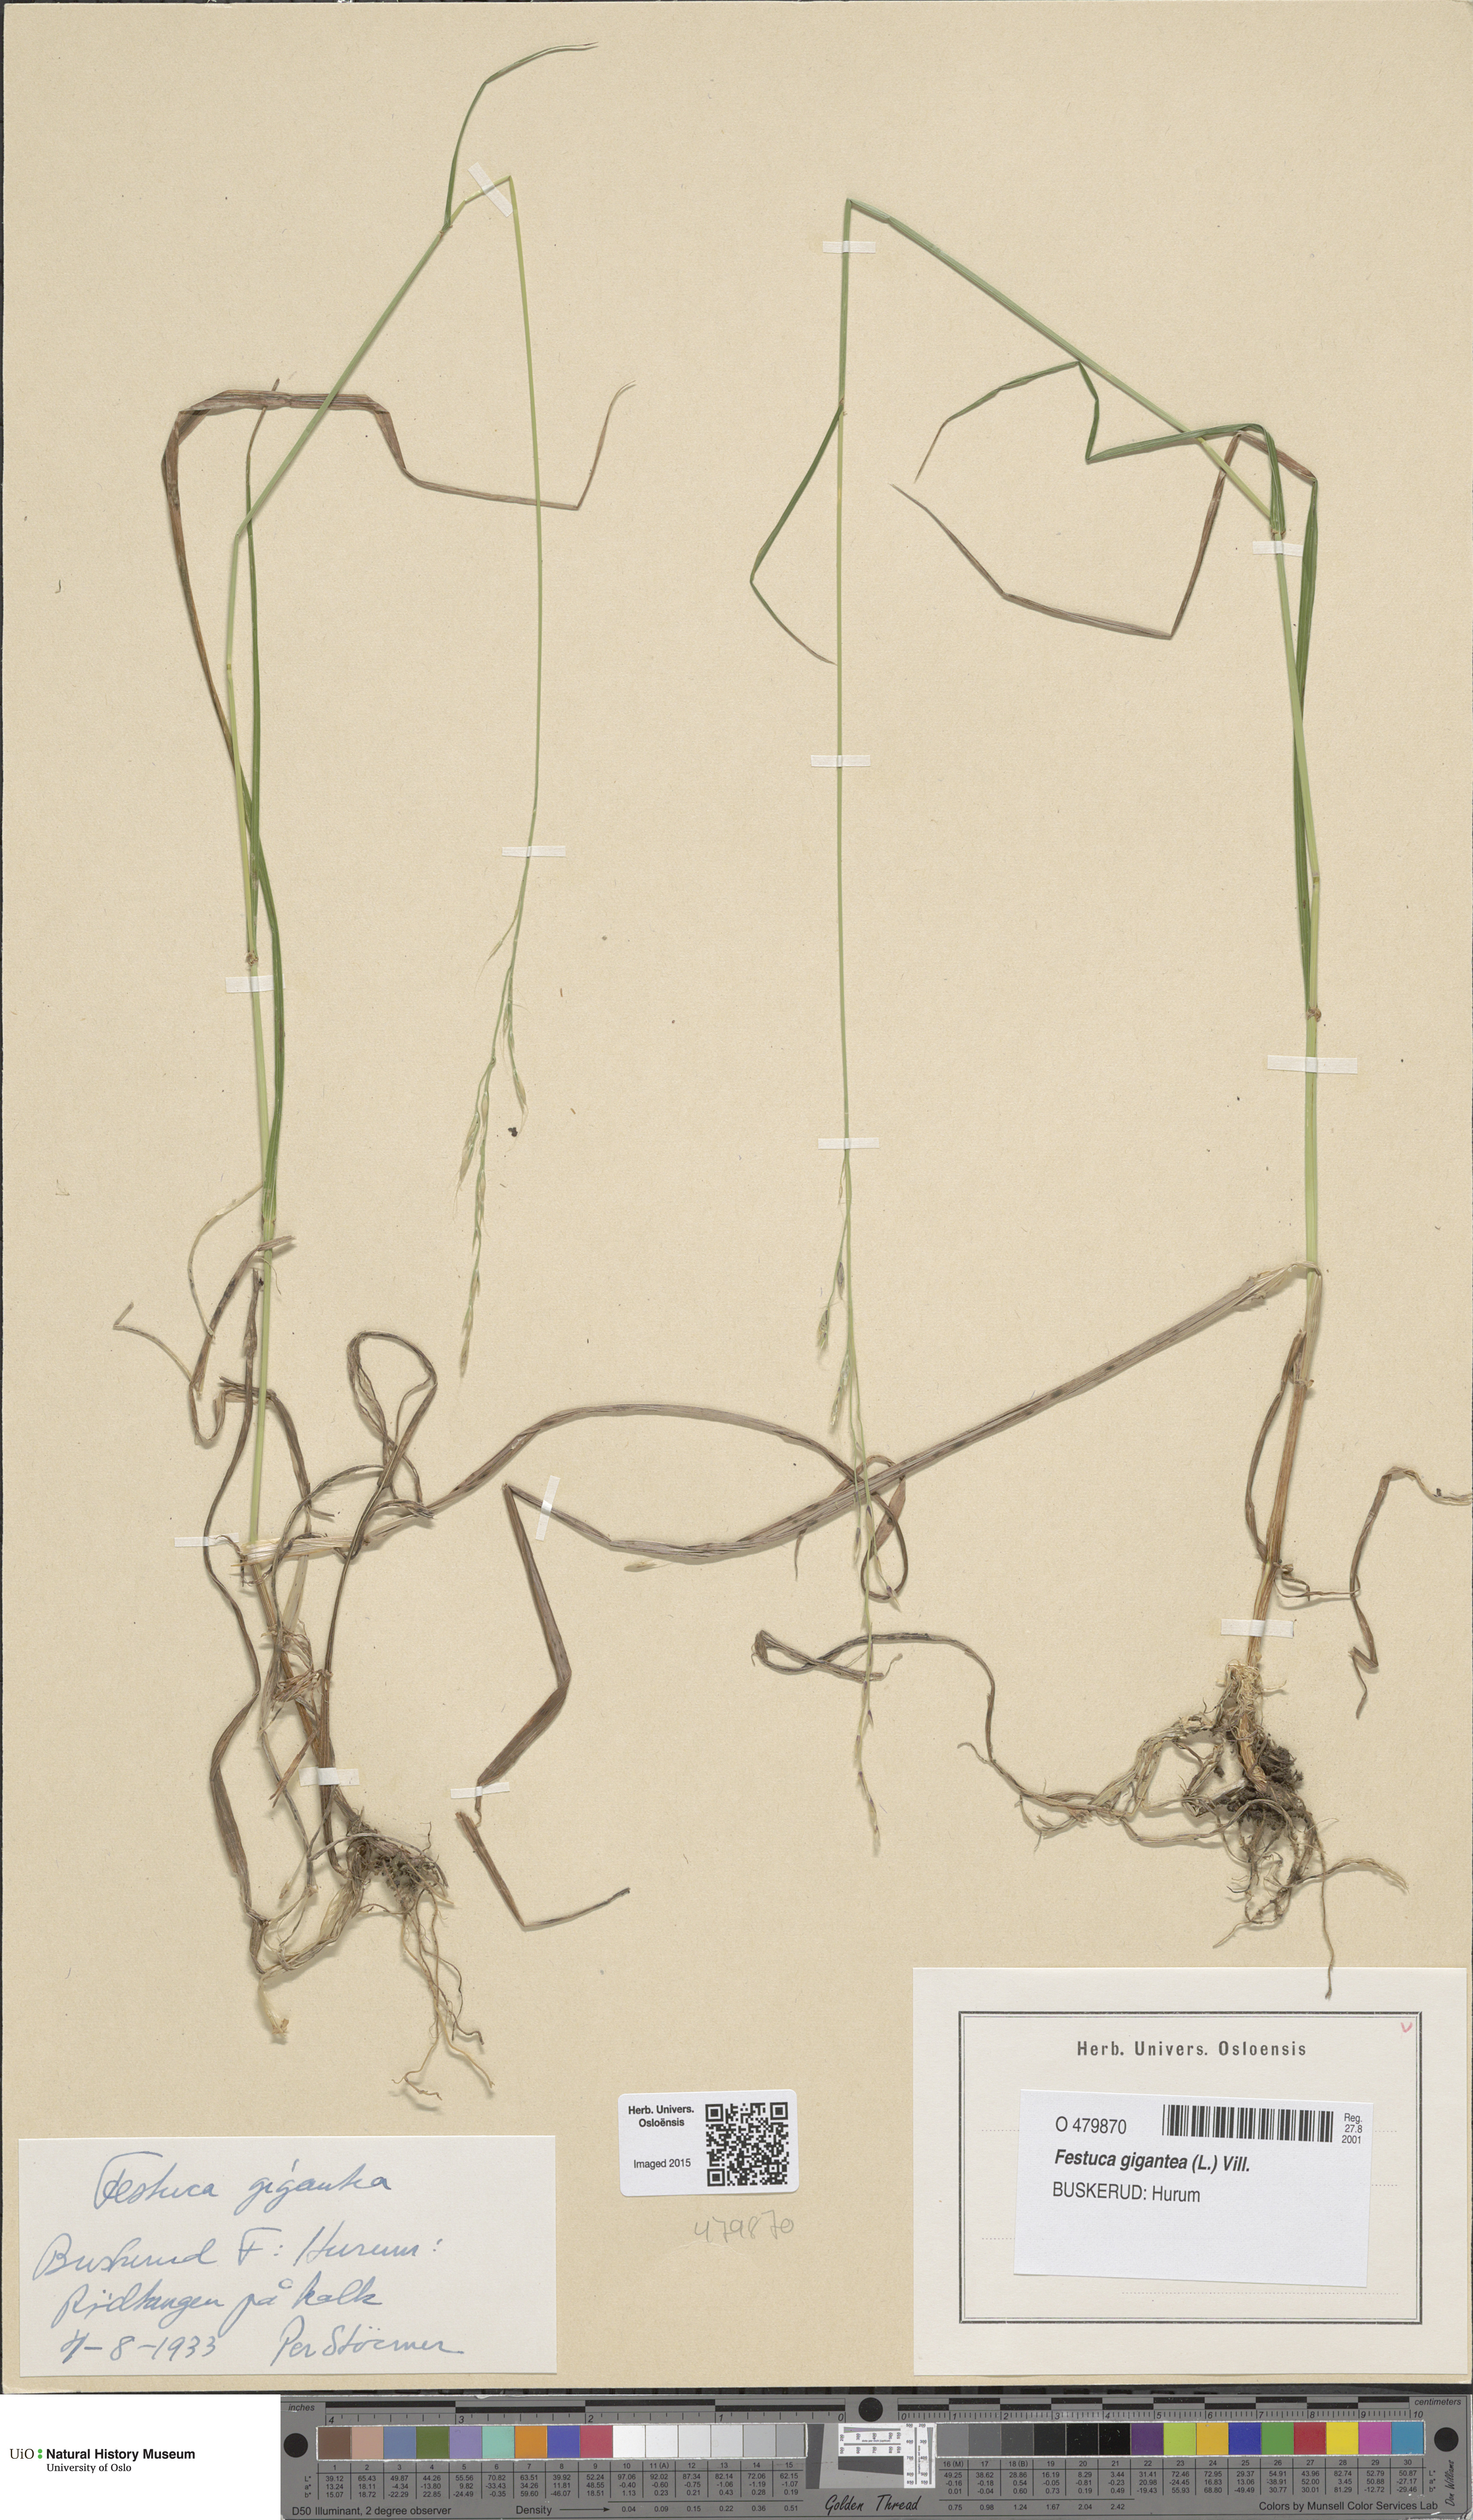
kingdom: Plantae
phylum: Tracheophyta
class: Liliopsida
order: Poales
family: Poaceae
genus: Lolium
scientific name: Lolium giganteum
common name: Giant fescue
